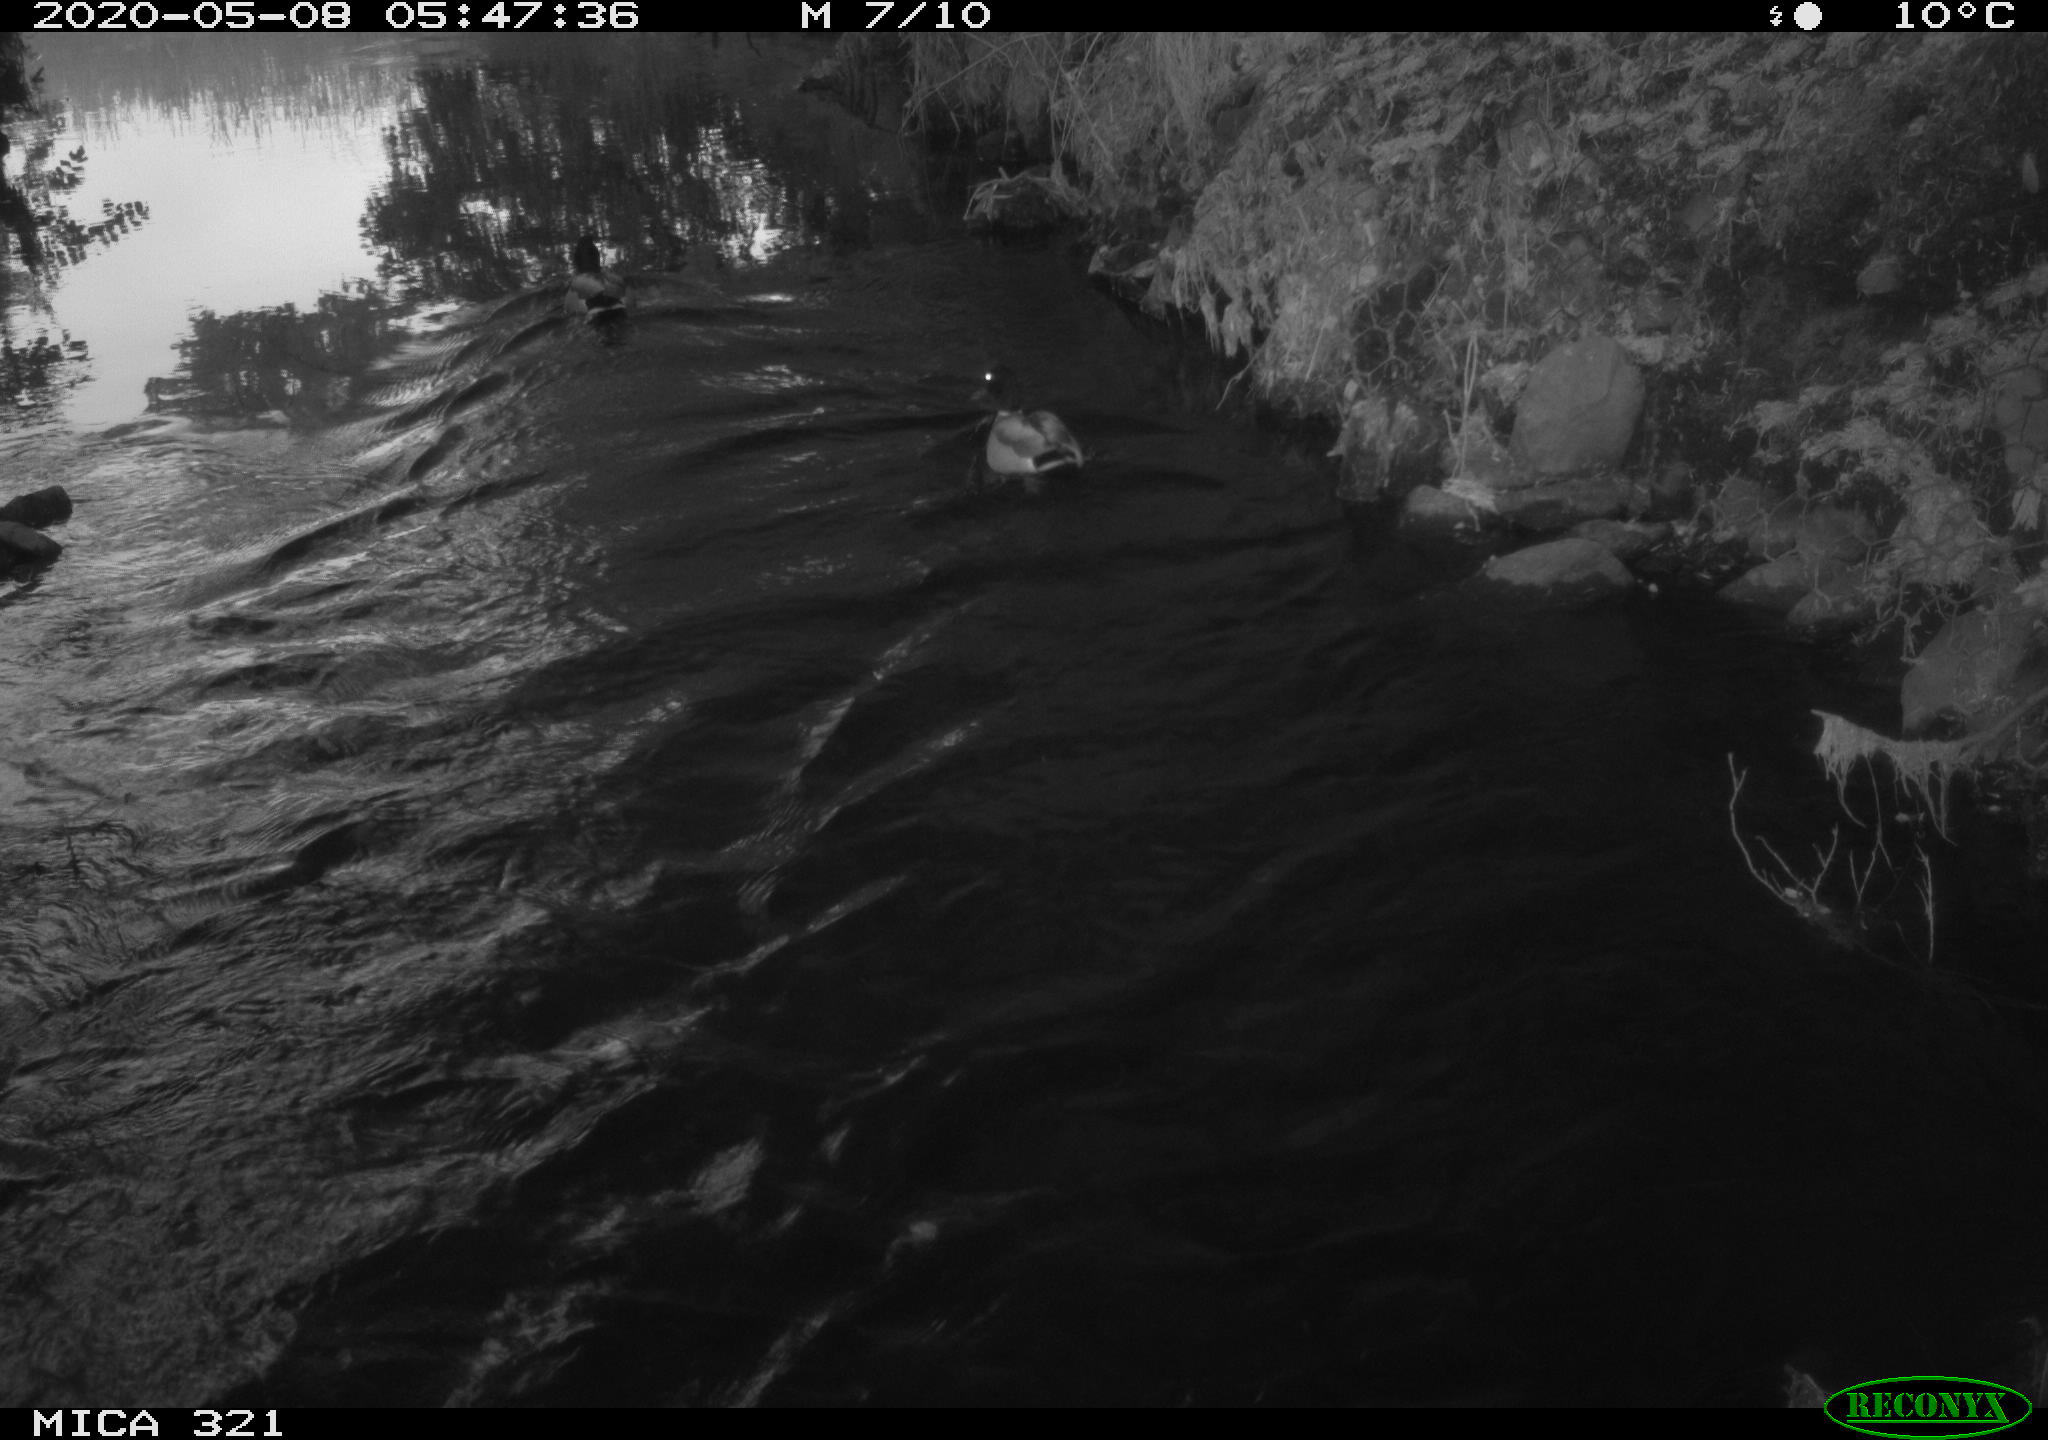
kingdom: Animalia
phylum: Chordata
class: Aves
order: Anseriformes
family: Anatidae
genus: Anas
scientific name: Anas platyrhynchos
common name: Mallard
